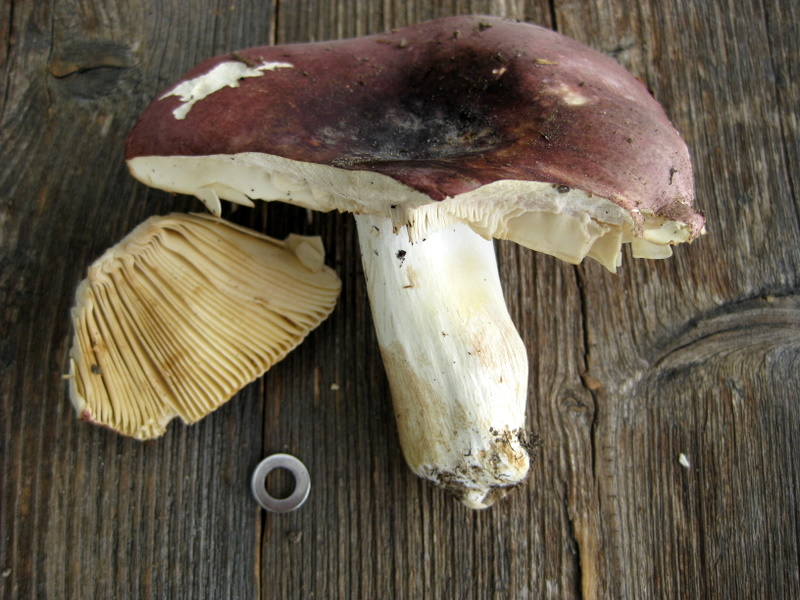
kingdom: Fungi
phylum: Basidiomycota
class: Agaricomycetes
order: Russulales
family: Russulaceae
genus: Russula
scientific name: Russula faginea
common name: bøge-skørhat
